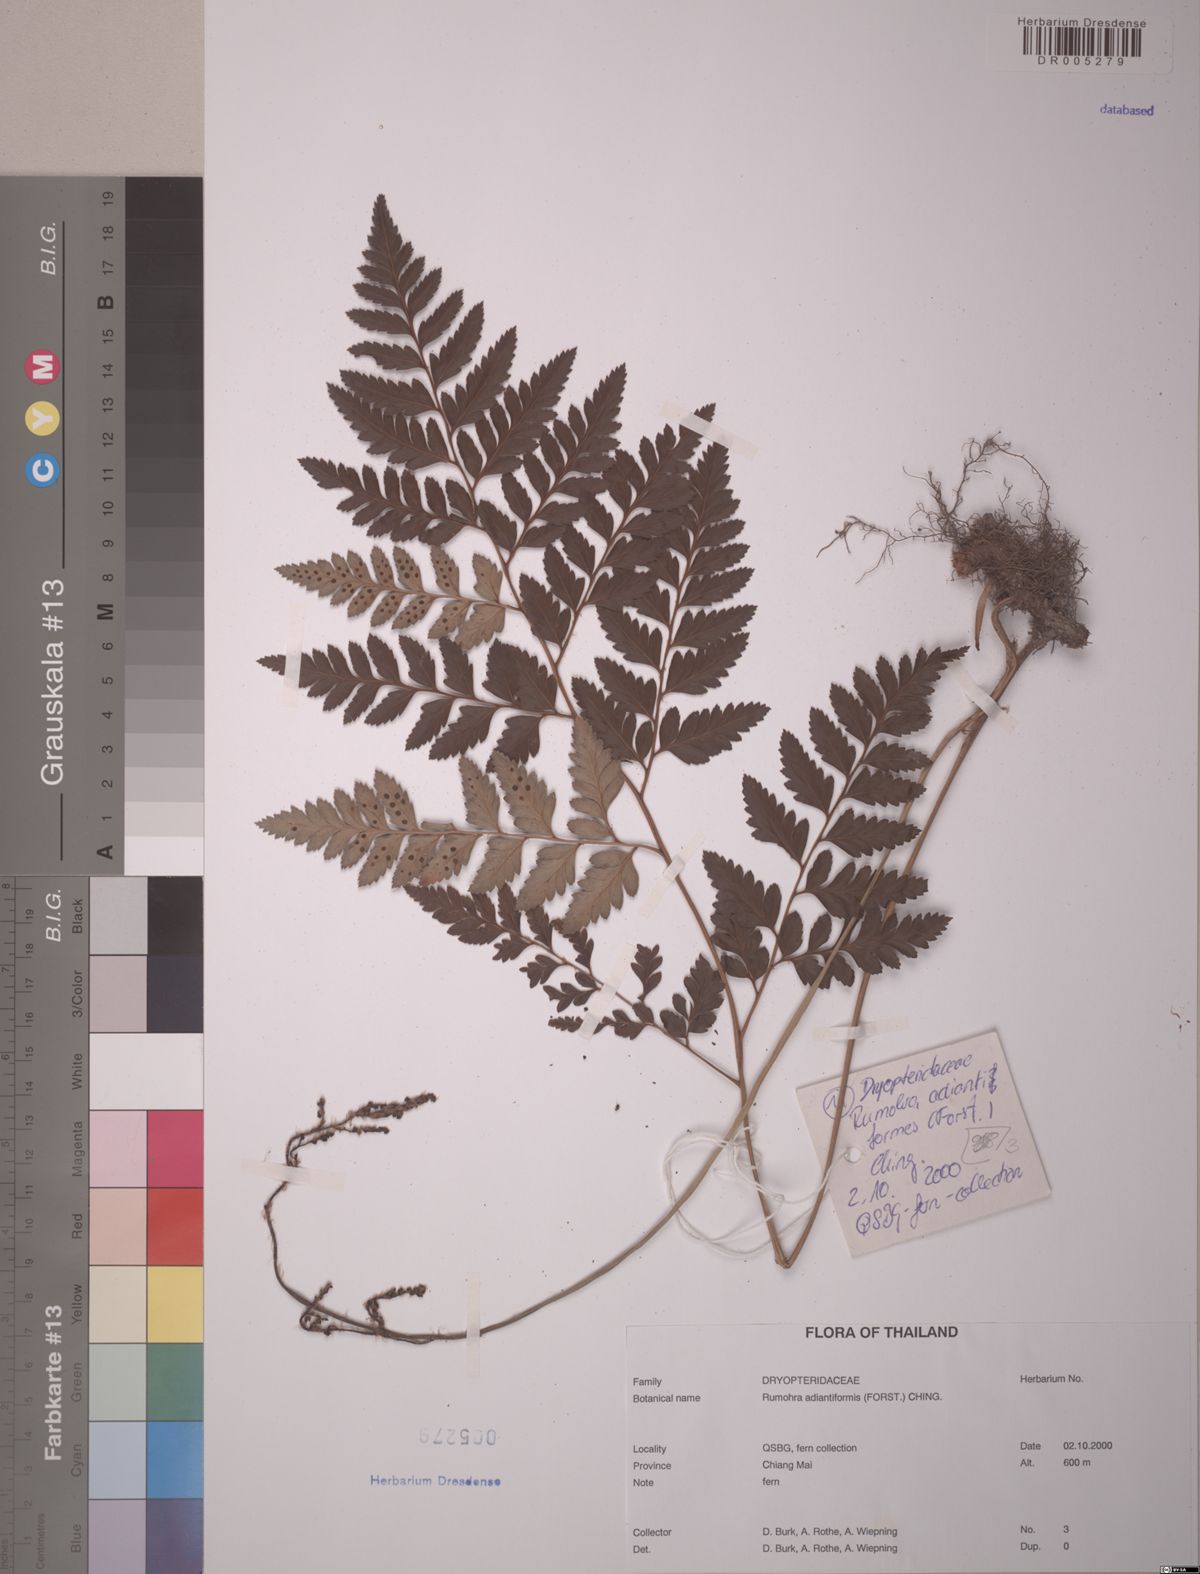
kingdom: Plantae
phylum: Tracheophyta
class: Polypodiopsida
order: Polypodiales
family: Dryopteridaceae
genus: Rumohra
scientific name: Rumohra adiantiformis
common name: Leather fern
